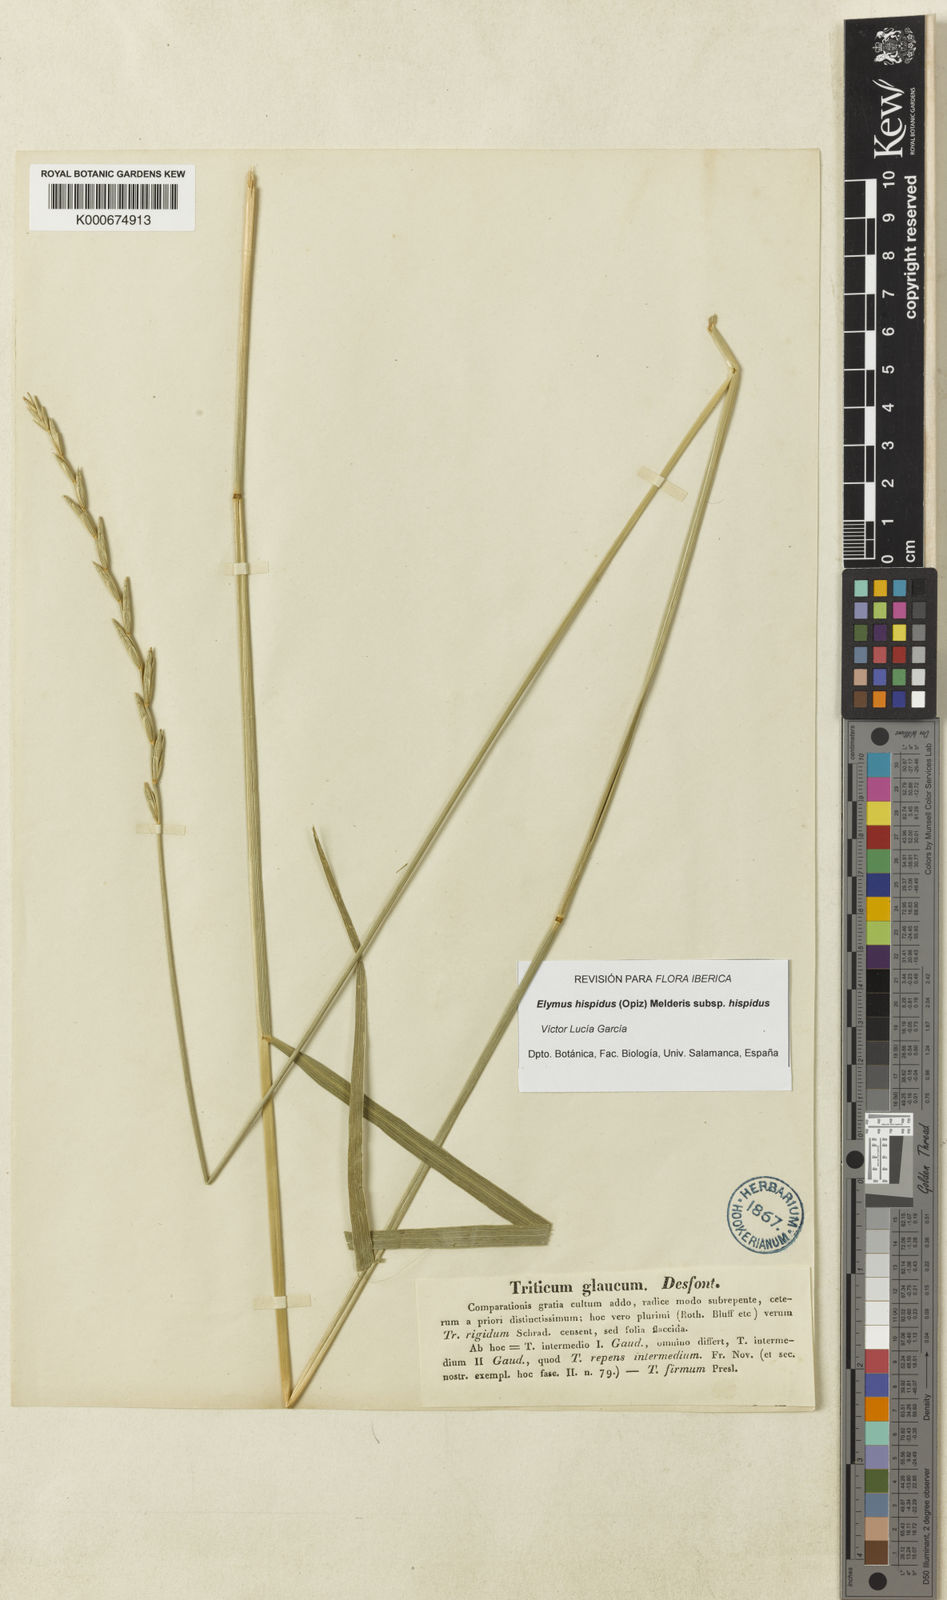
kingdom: Plantae
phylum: Tracheophyta
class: Liliopsida
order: Poales
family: Poaceae
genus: Elymus
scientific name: Elymus repens
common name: Quackgrass
